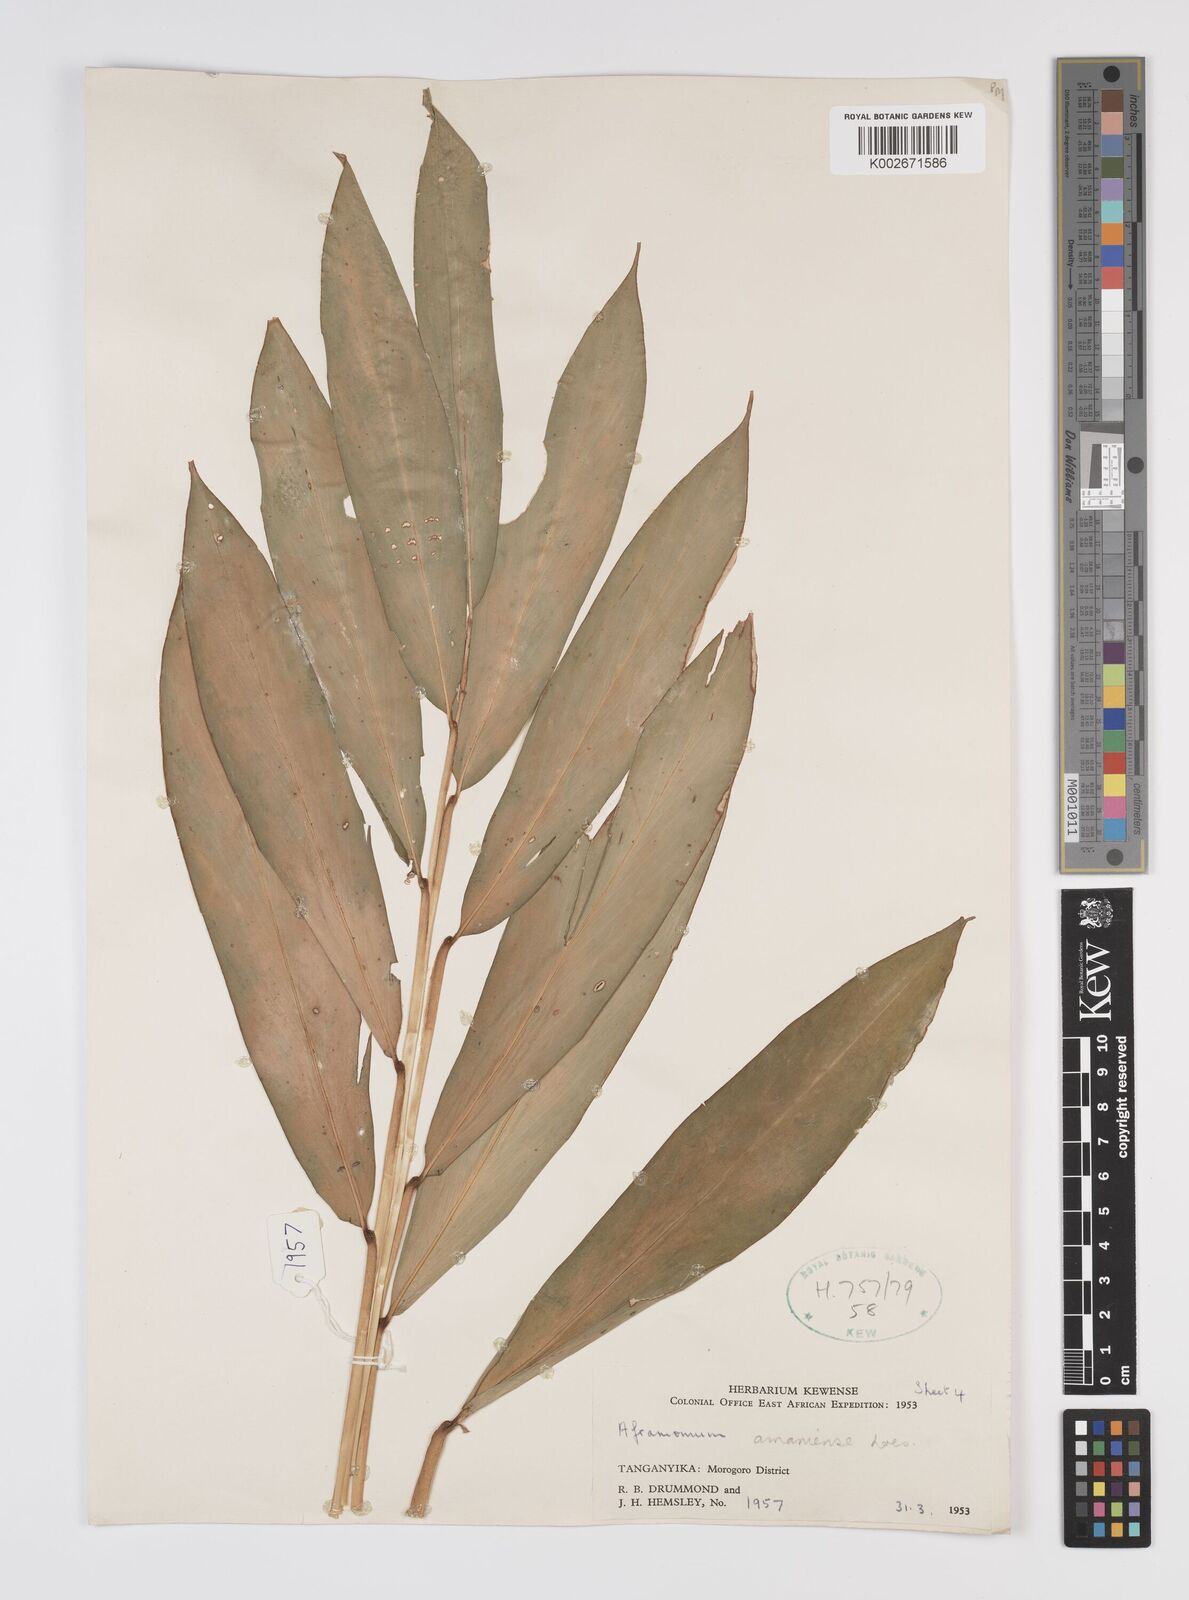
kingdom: Plantae
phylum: Tracheophyta
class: Liliopsida
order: Zingiberales
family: Zingiberaceae
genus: Aframomum
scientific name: Aframomum limbatum
